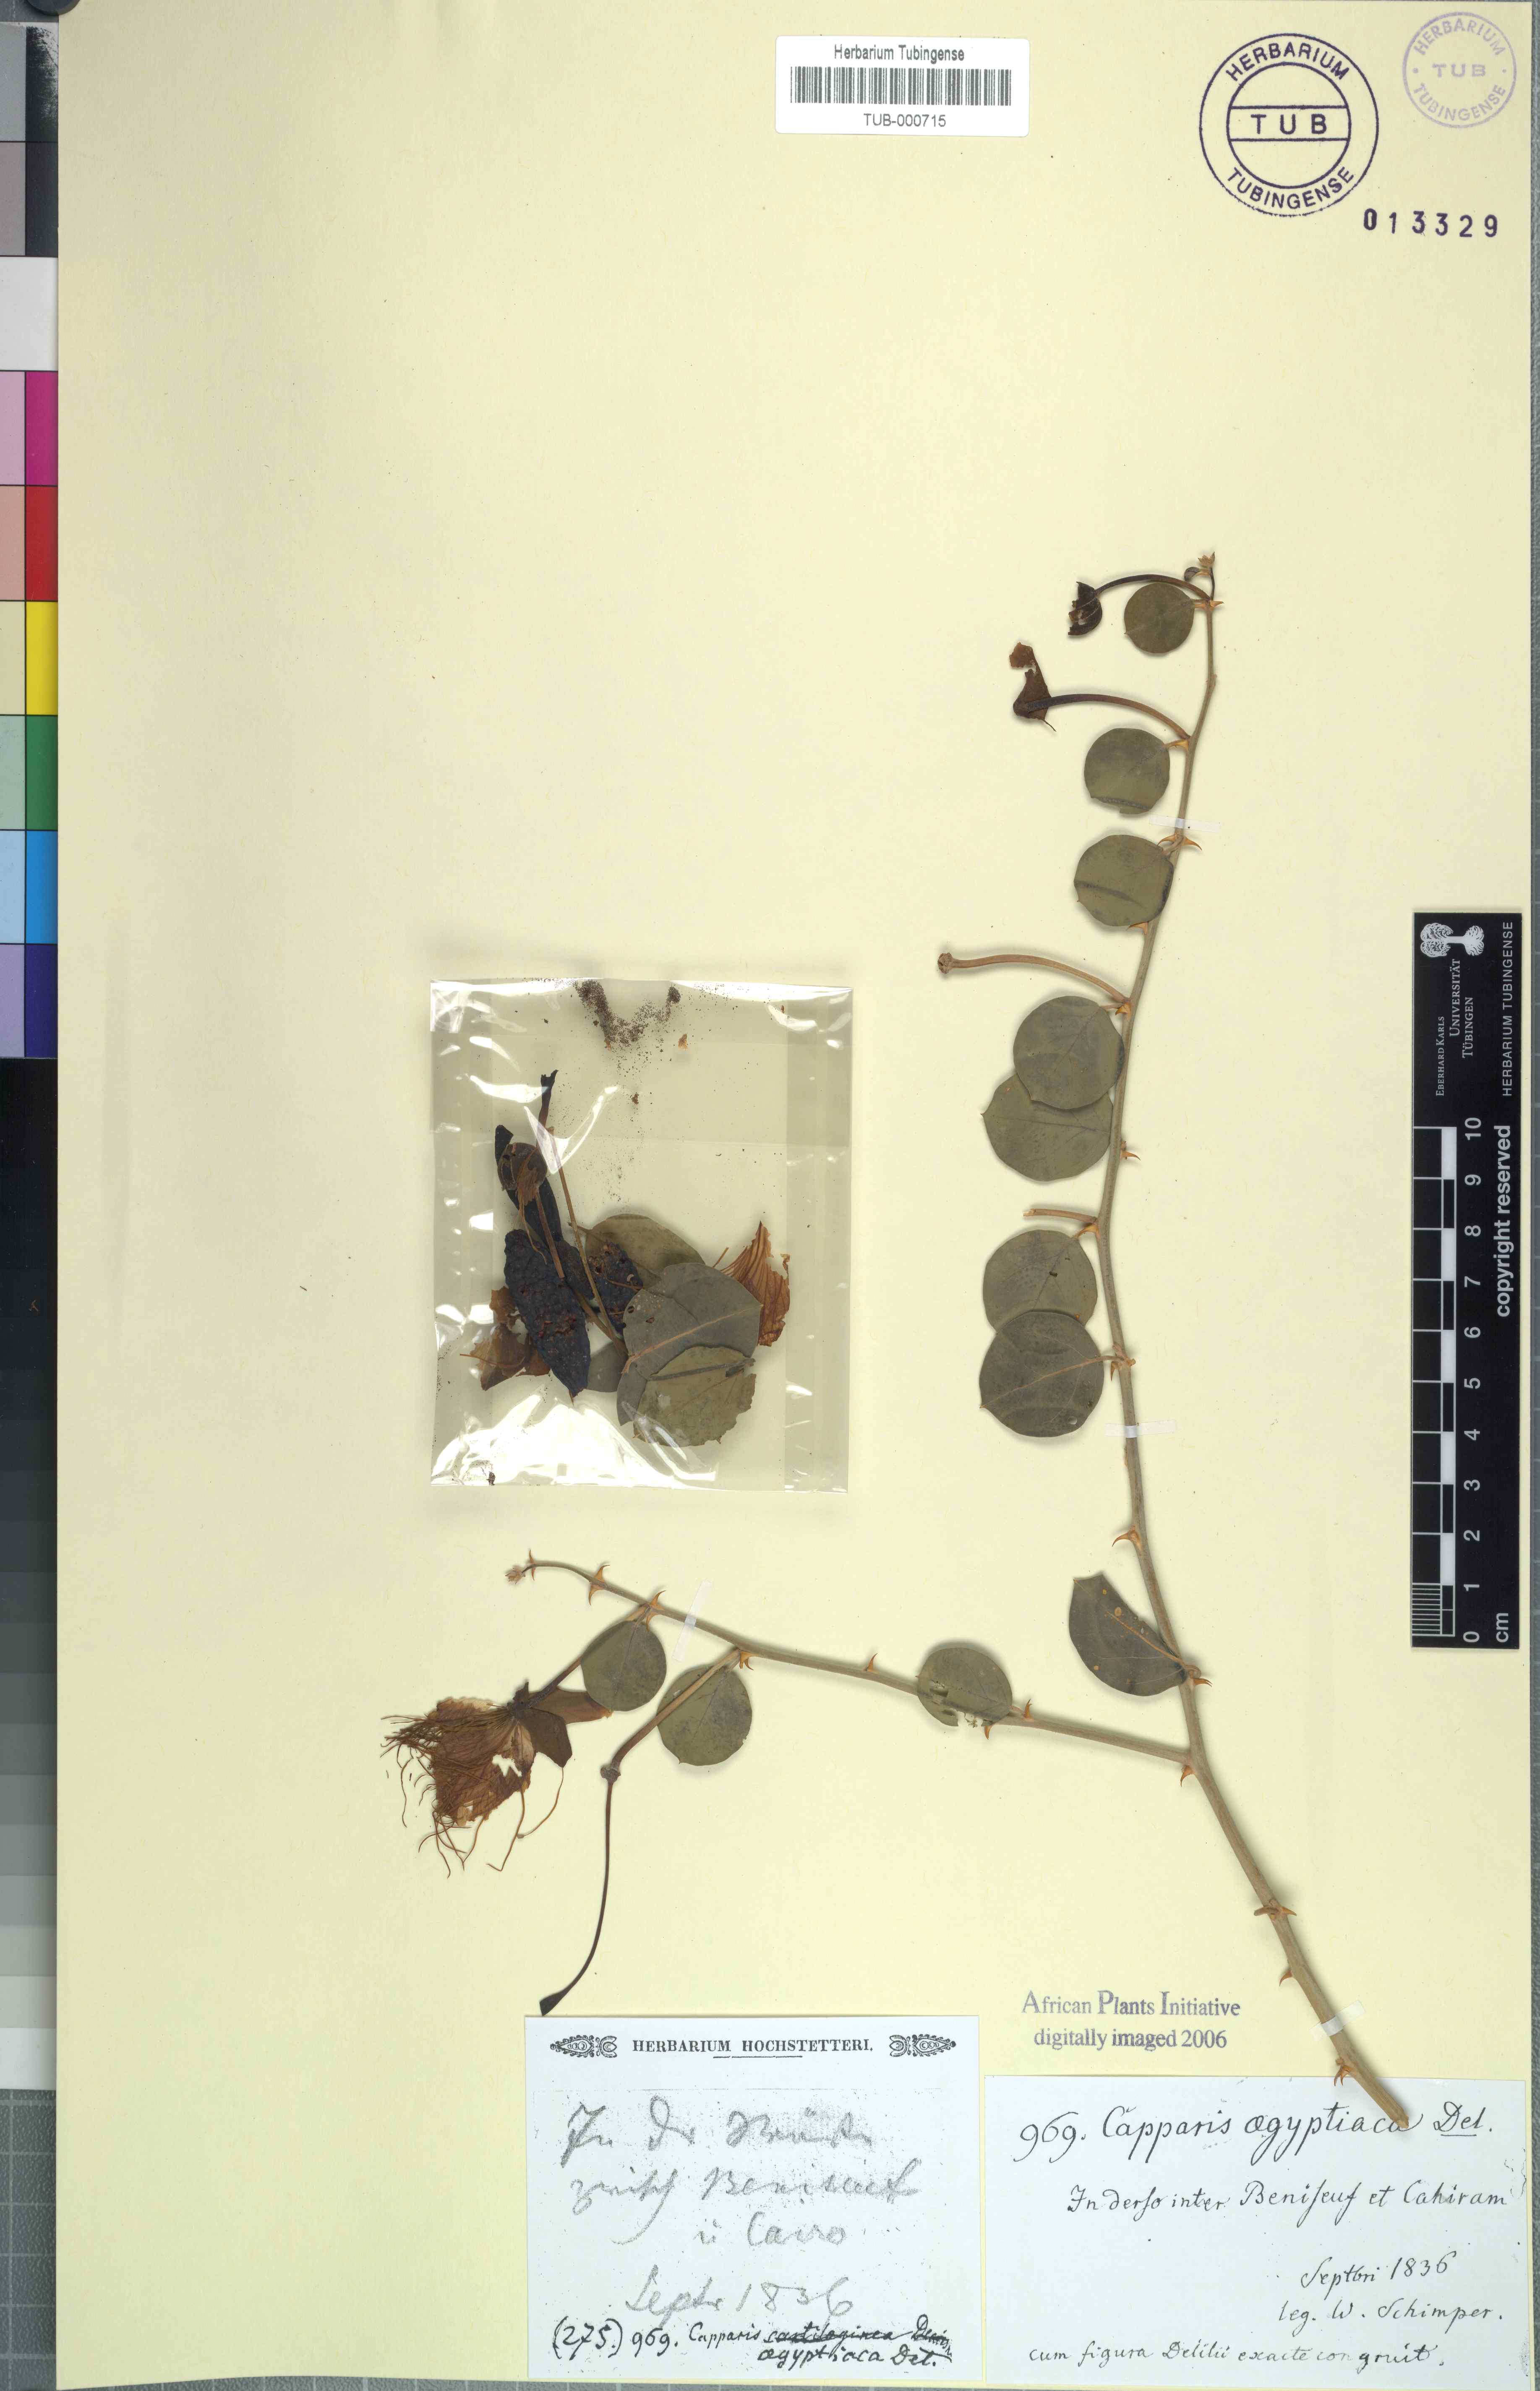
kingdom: Plantae
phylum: Tracheophyta
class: Magnoliopsida
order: Brassicales
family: Capparaceae
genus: Capparis
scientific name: Capparis spinosa
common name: Caper
